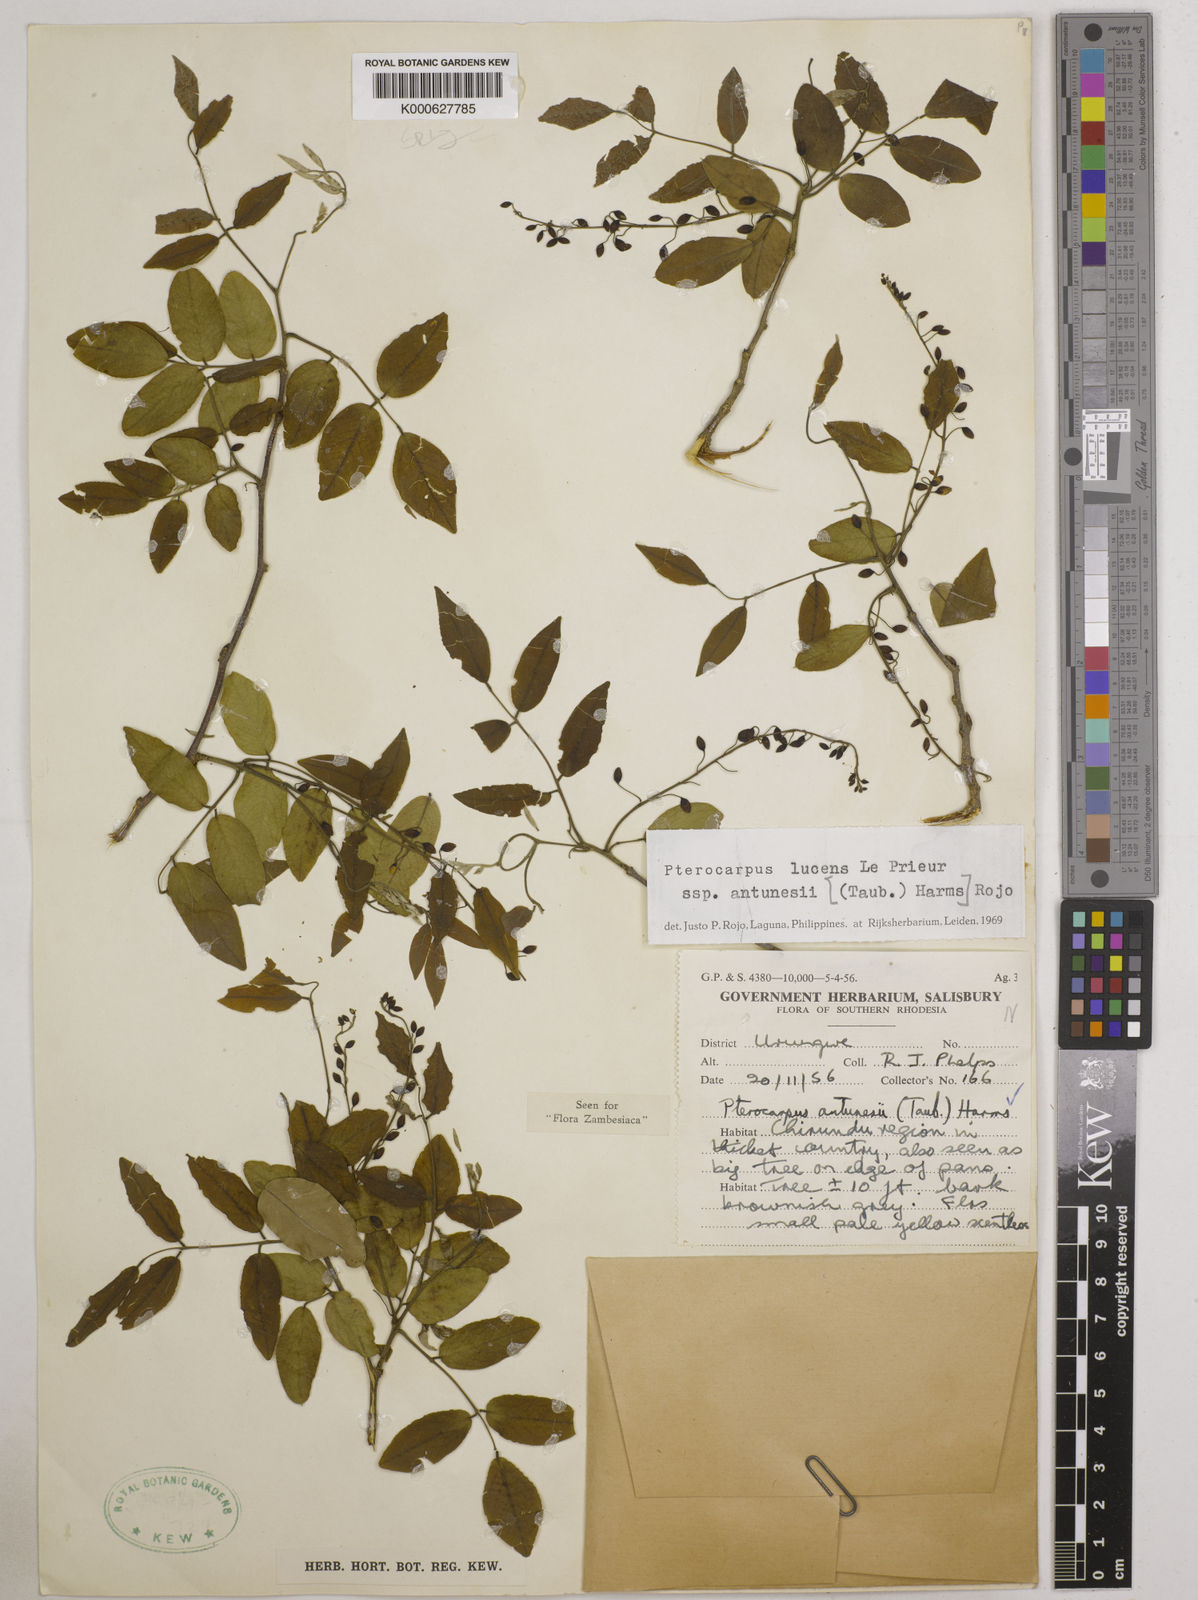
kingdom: Plantae
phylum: Tracheophyta
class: Magnoliopsida
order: Fabales
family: Fabaceae
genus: Pterocarpus
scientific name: Pterocarpus lucens
